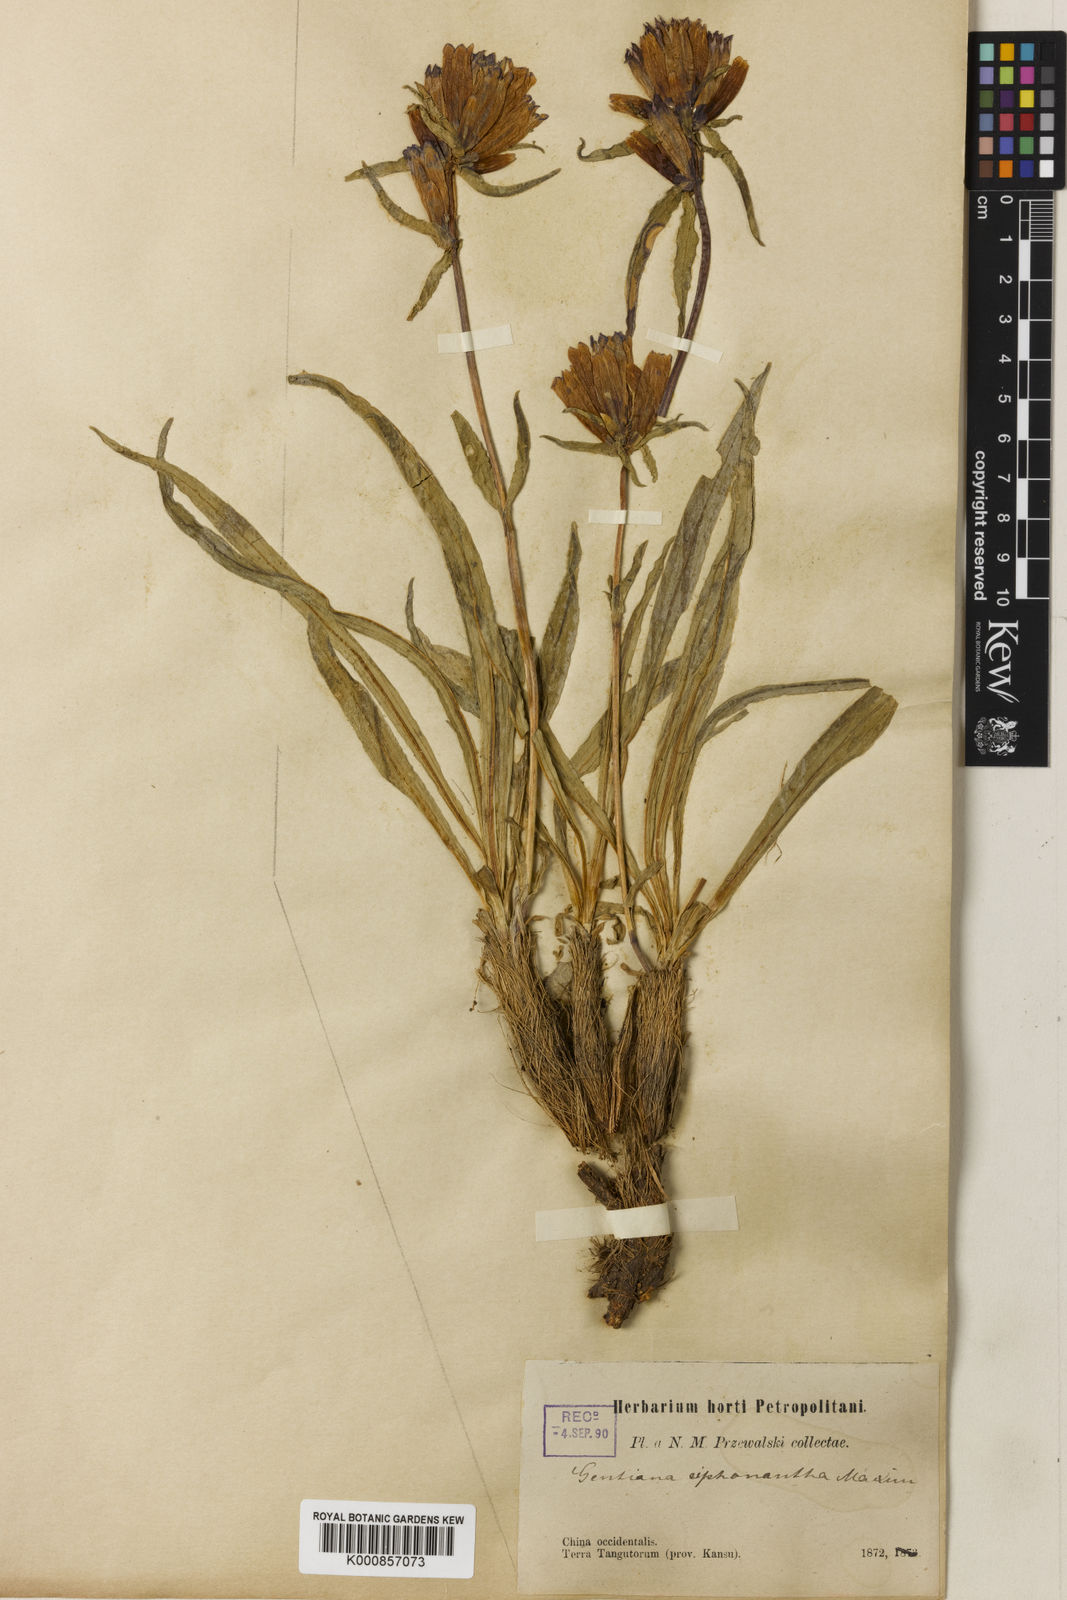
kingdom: Plantae
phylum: Tracheophyta
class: Magnoliopsida
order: Gentianales
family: Gentianaceae
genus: Gentiana
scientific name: Gentiana
